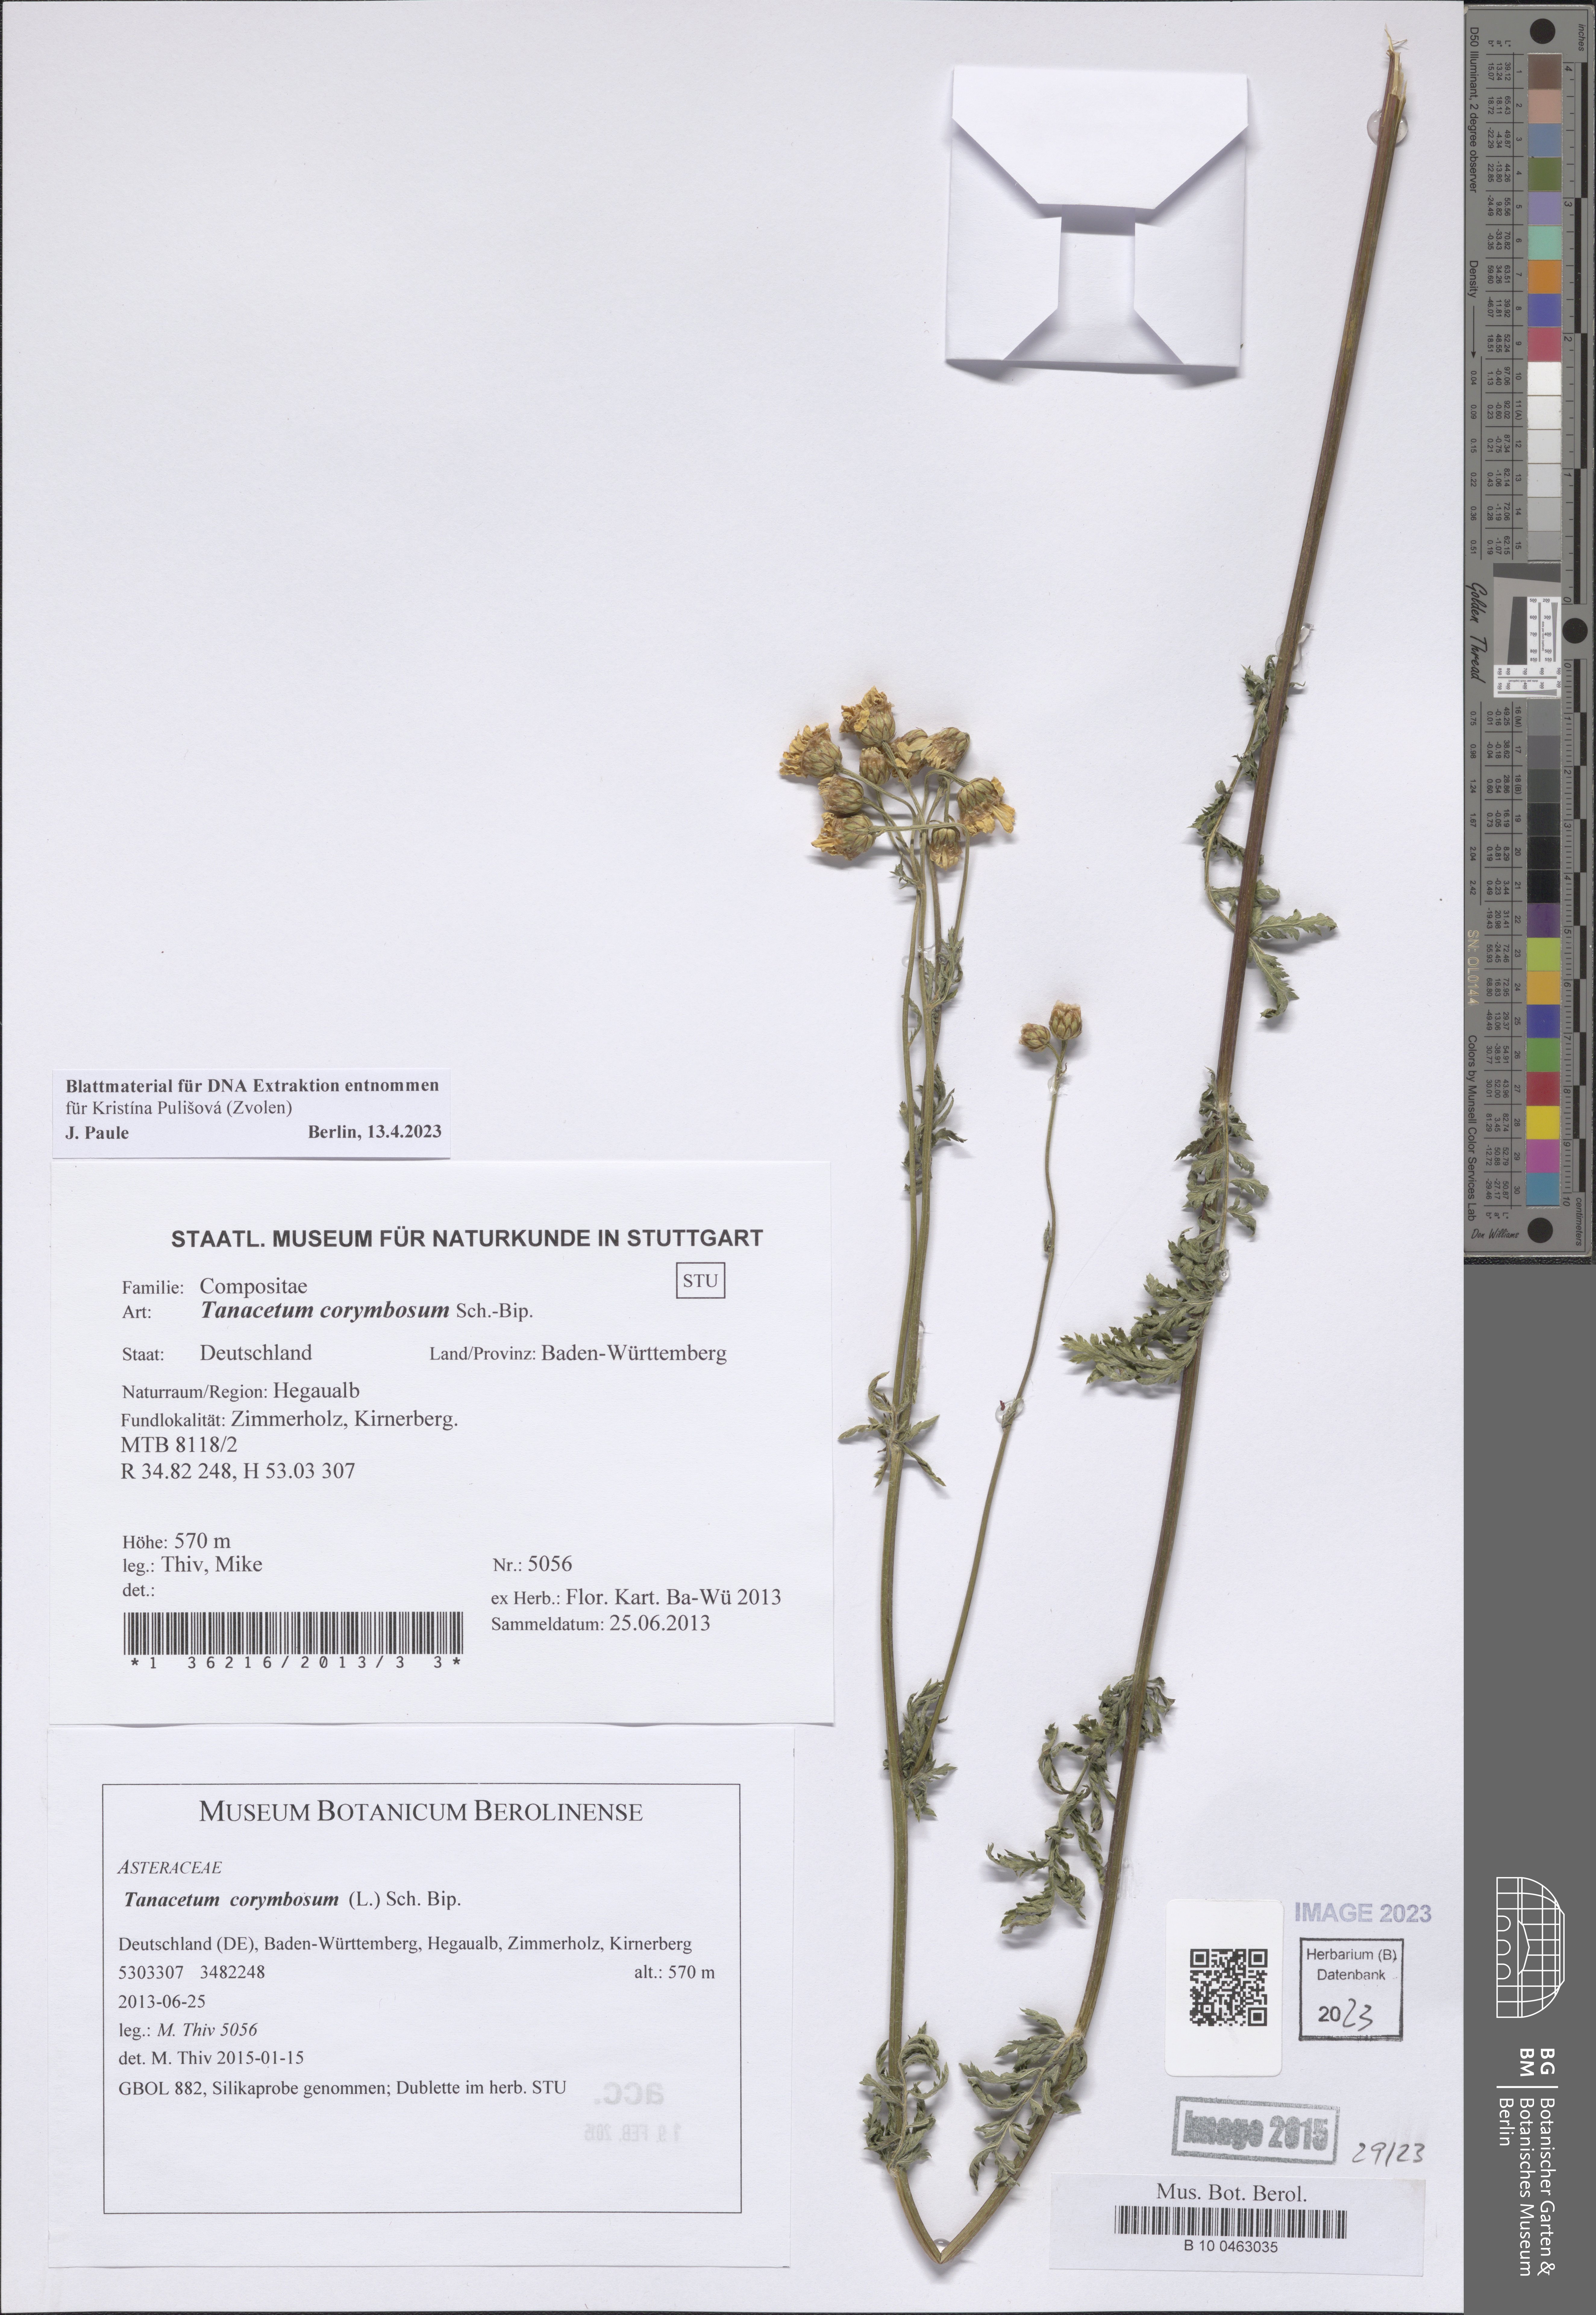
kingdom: Plantae
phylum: Tracheophyta
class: Magnoliopsida
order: Asterales
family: Asteraceae
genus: Tanacetum
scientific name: Tanacetum corymbosum
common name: Scentless feverfew
